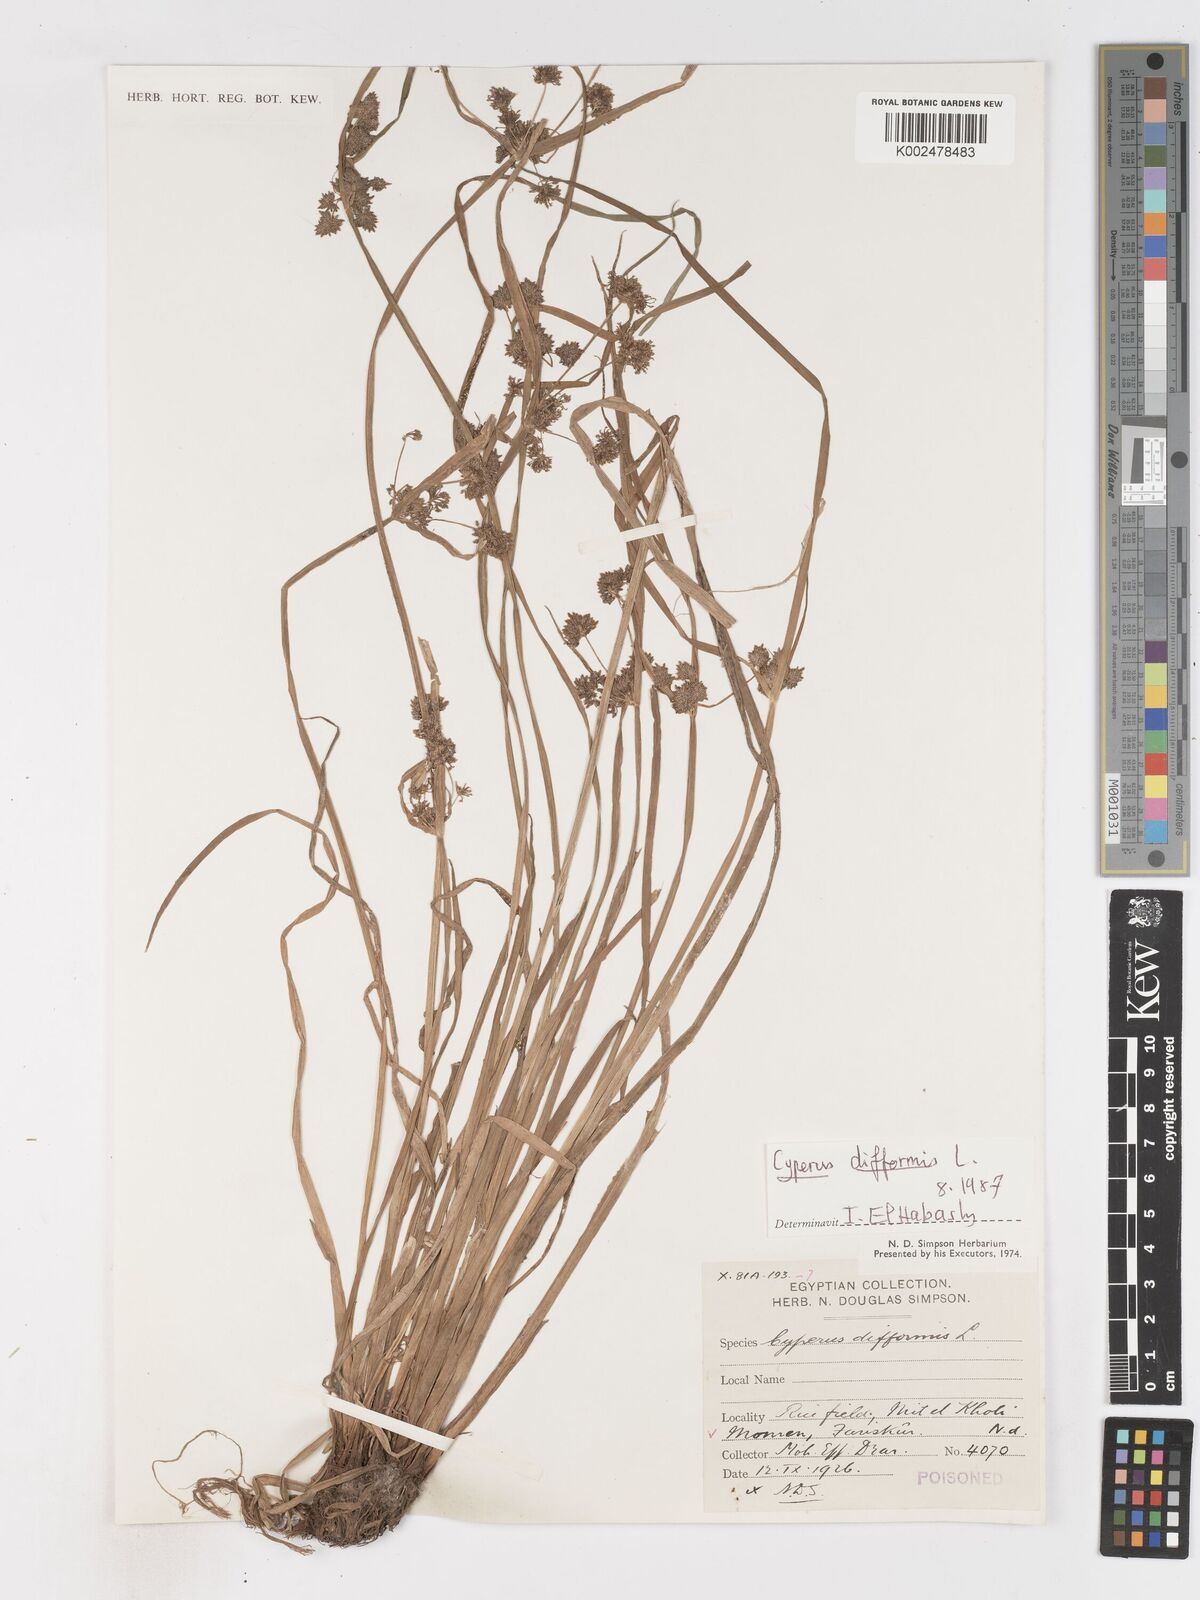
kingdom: Plantae
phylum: Tracheophyta
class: Liliopsida
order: Poales
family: Cyperaceae
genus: Cyperus
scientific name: Cyperus difformis
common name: Variable flatsedge
